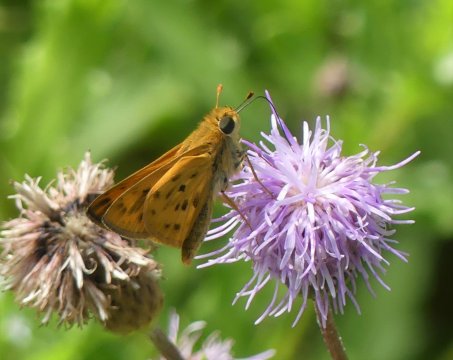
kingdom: Animalia
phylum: Arthropoda
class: Insecta
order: Lepidoptera
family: Hesperiidae
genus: Hylephila
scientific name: Hylephila phyleus
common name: Fiery Skipper
